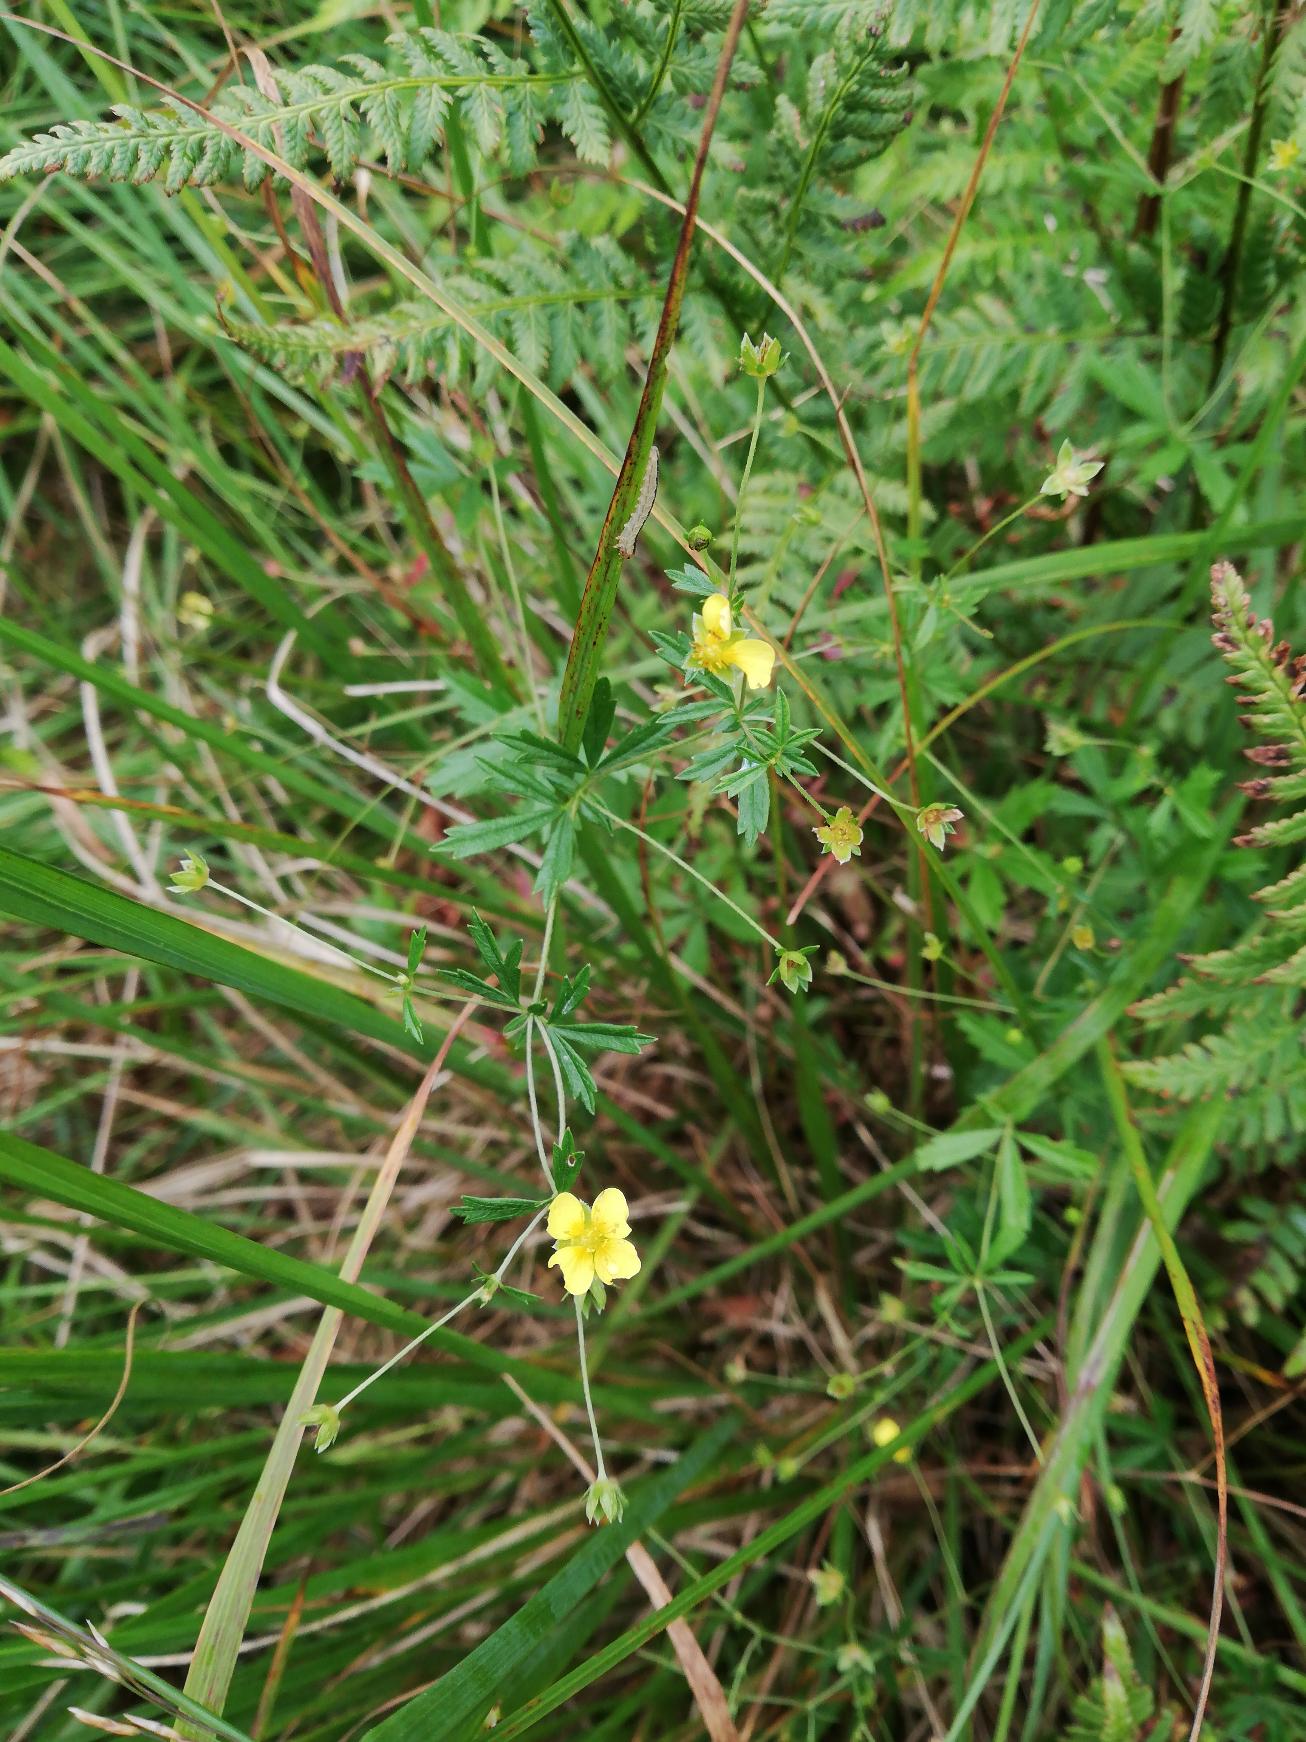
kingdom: Plantae
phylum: Tracheophyta
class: Magnoliopsida
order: Rosales
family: Rosaceae
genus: Potentilla
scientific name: Potentilla erecta
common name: Tormentil
